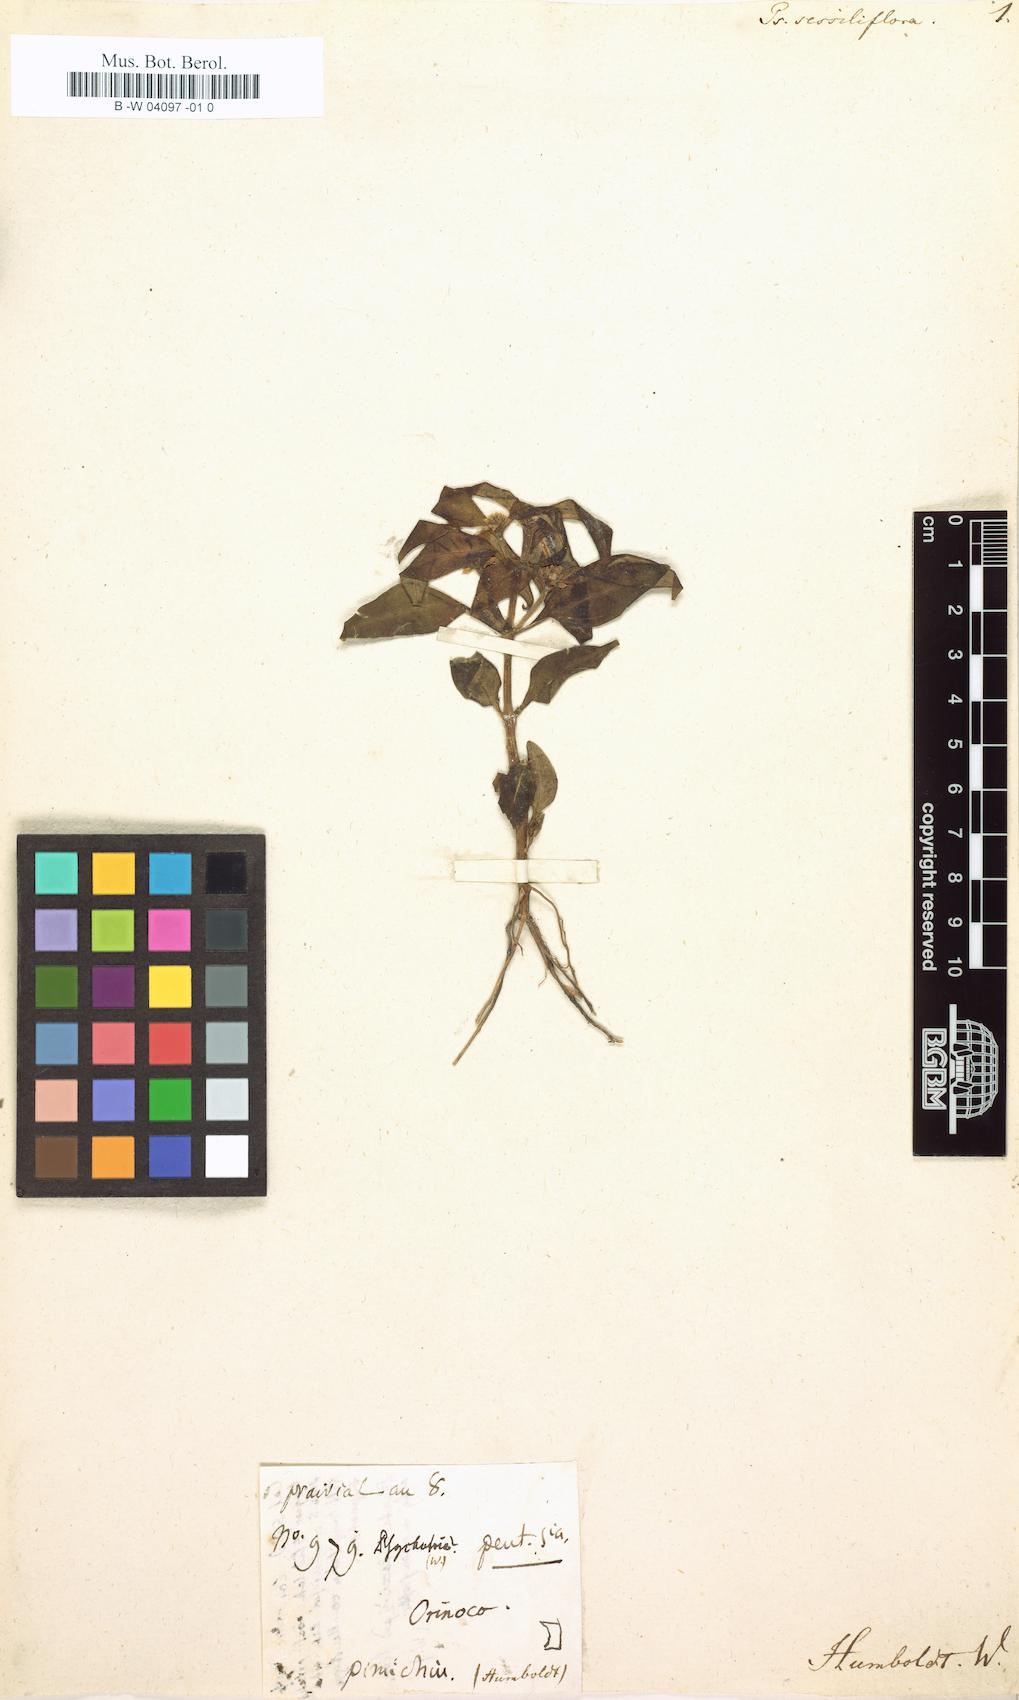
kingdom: Plantae
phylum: Tracheophyta
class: Magnoliopsida
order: Gentianales
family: Gentianaceae
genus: Tapeinostemon
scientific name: Tapeinostemon sessiliflorus
